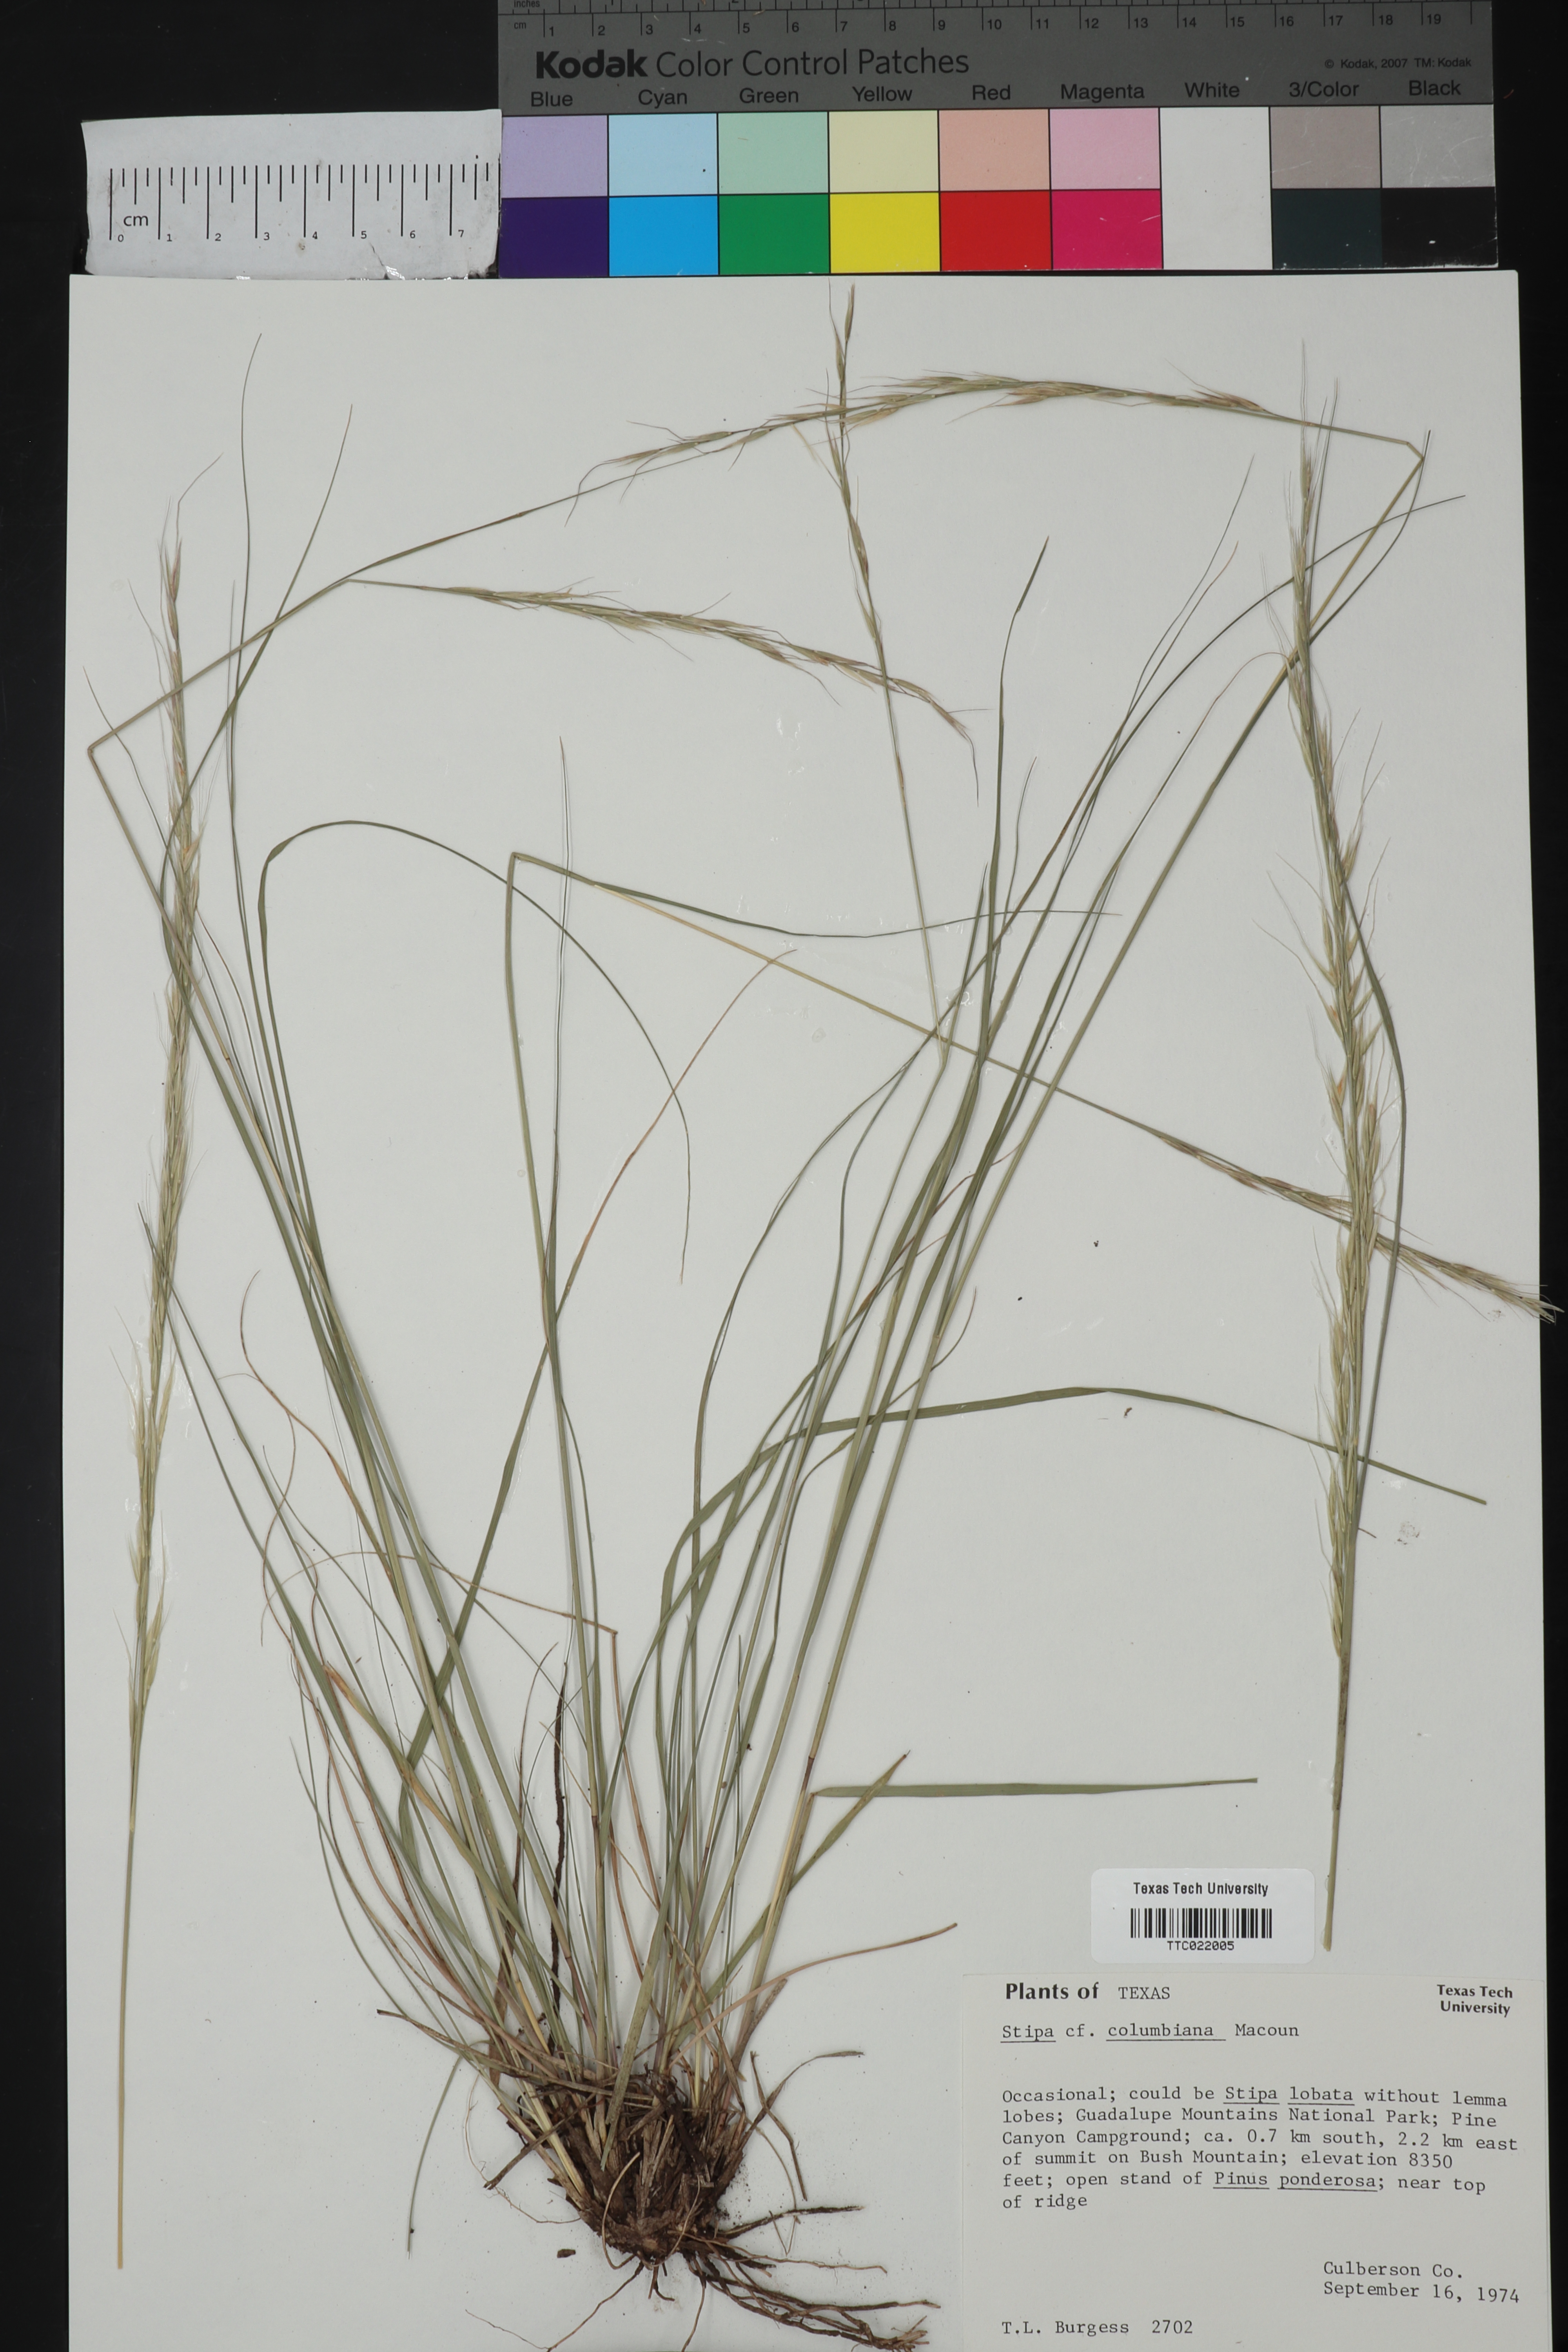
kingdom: Plantae
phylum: Tracheophyta
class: Liliopsida
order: Poales
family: Poaceae
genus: Eriocoma
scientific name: Eriocoma lemmonii
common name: Lemmon's needlegrass
